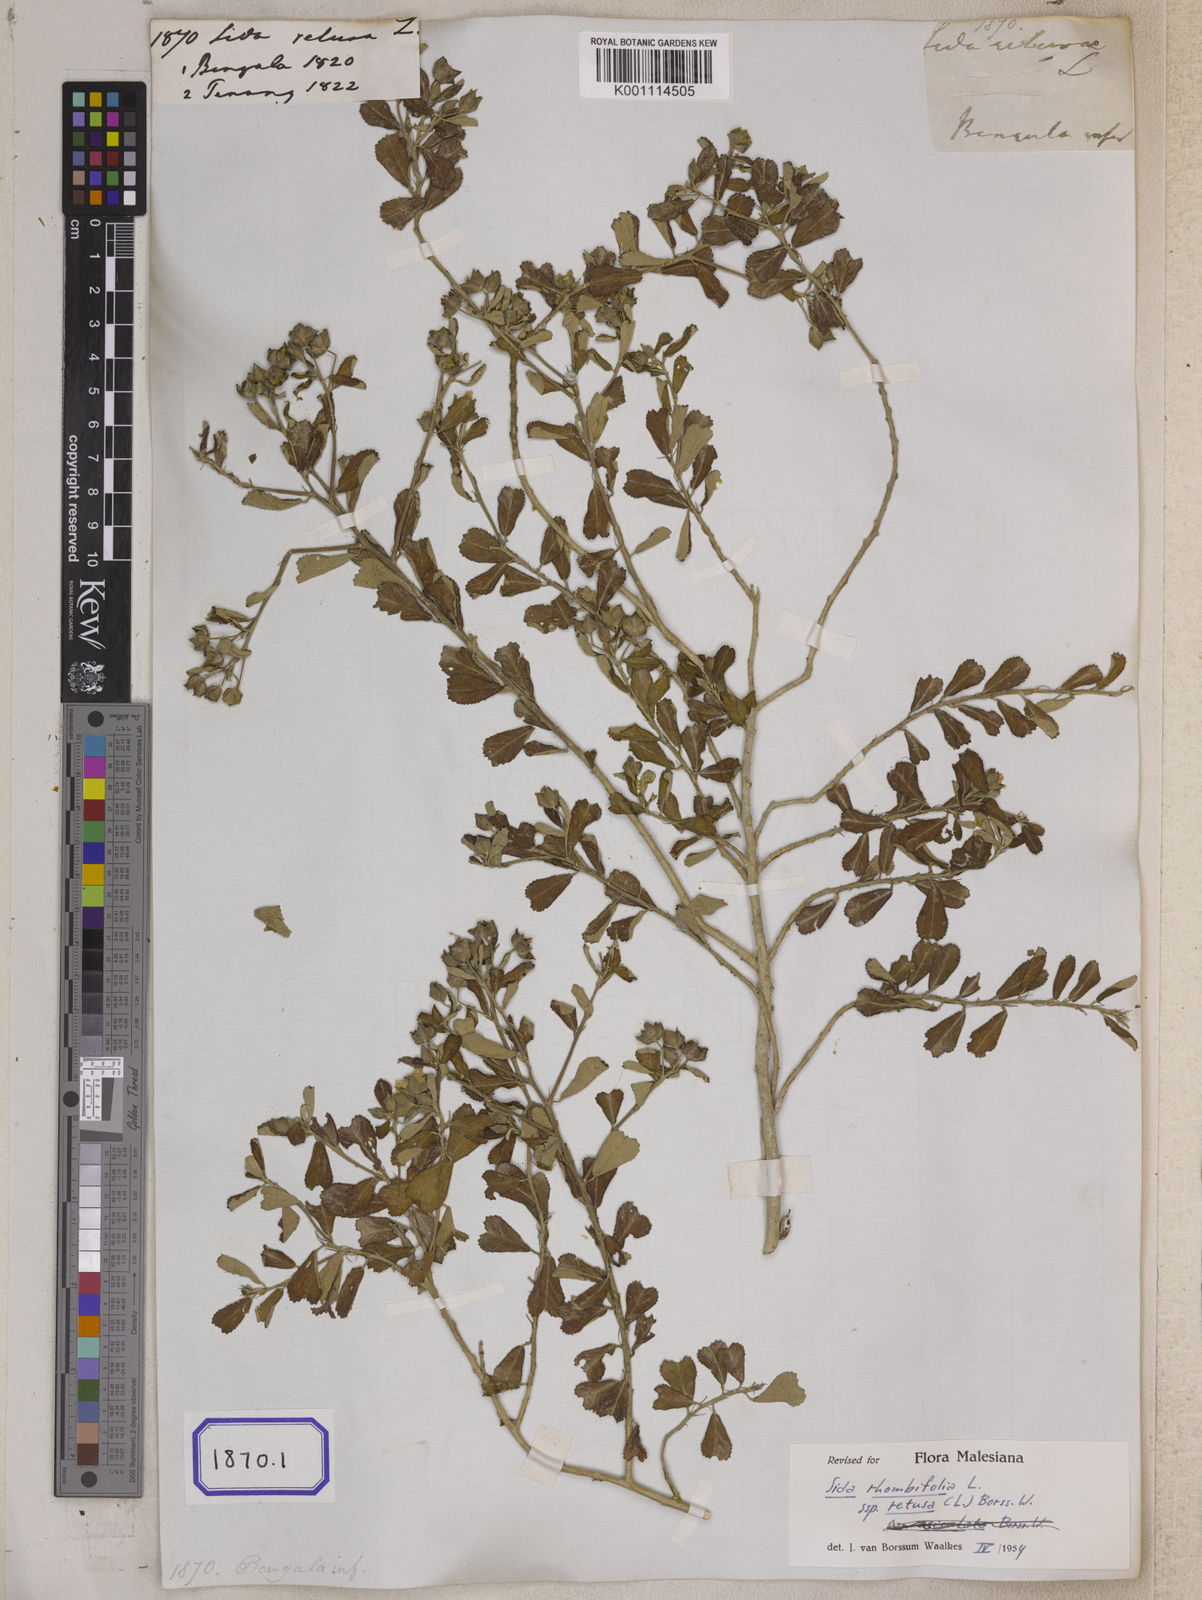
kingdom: Plantae
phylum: Tracheophyta
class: Magnoliopsida
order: Malvales
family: Malvaceae
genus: Sida
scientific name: Sida alnifolia
